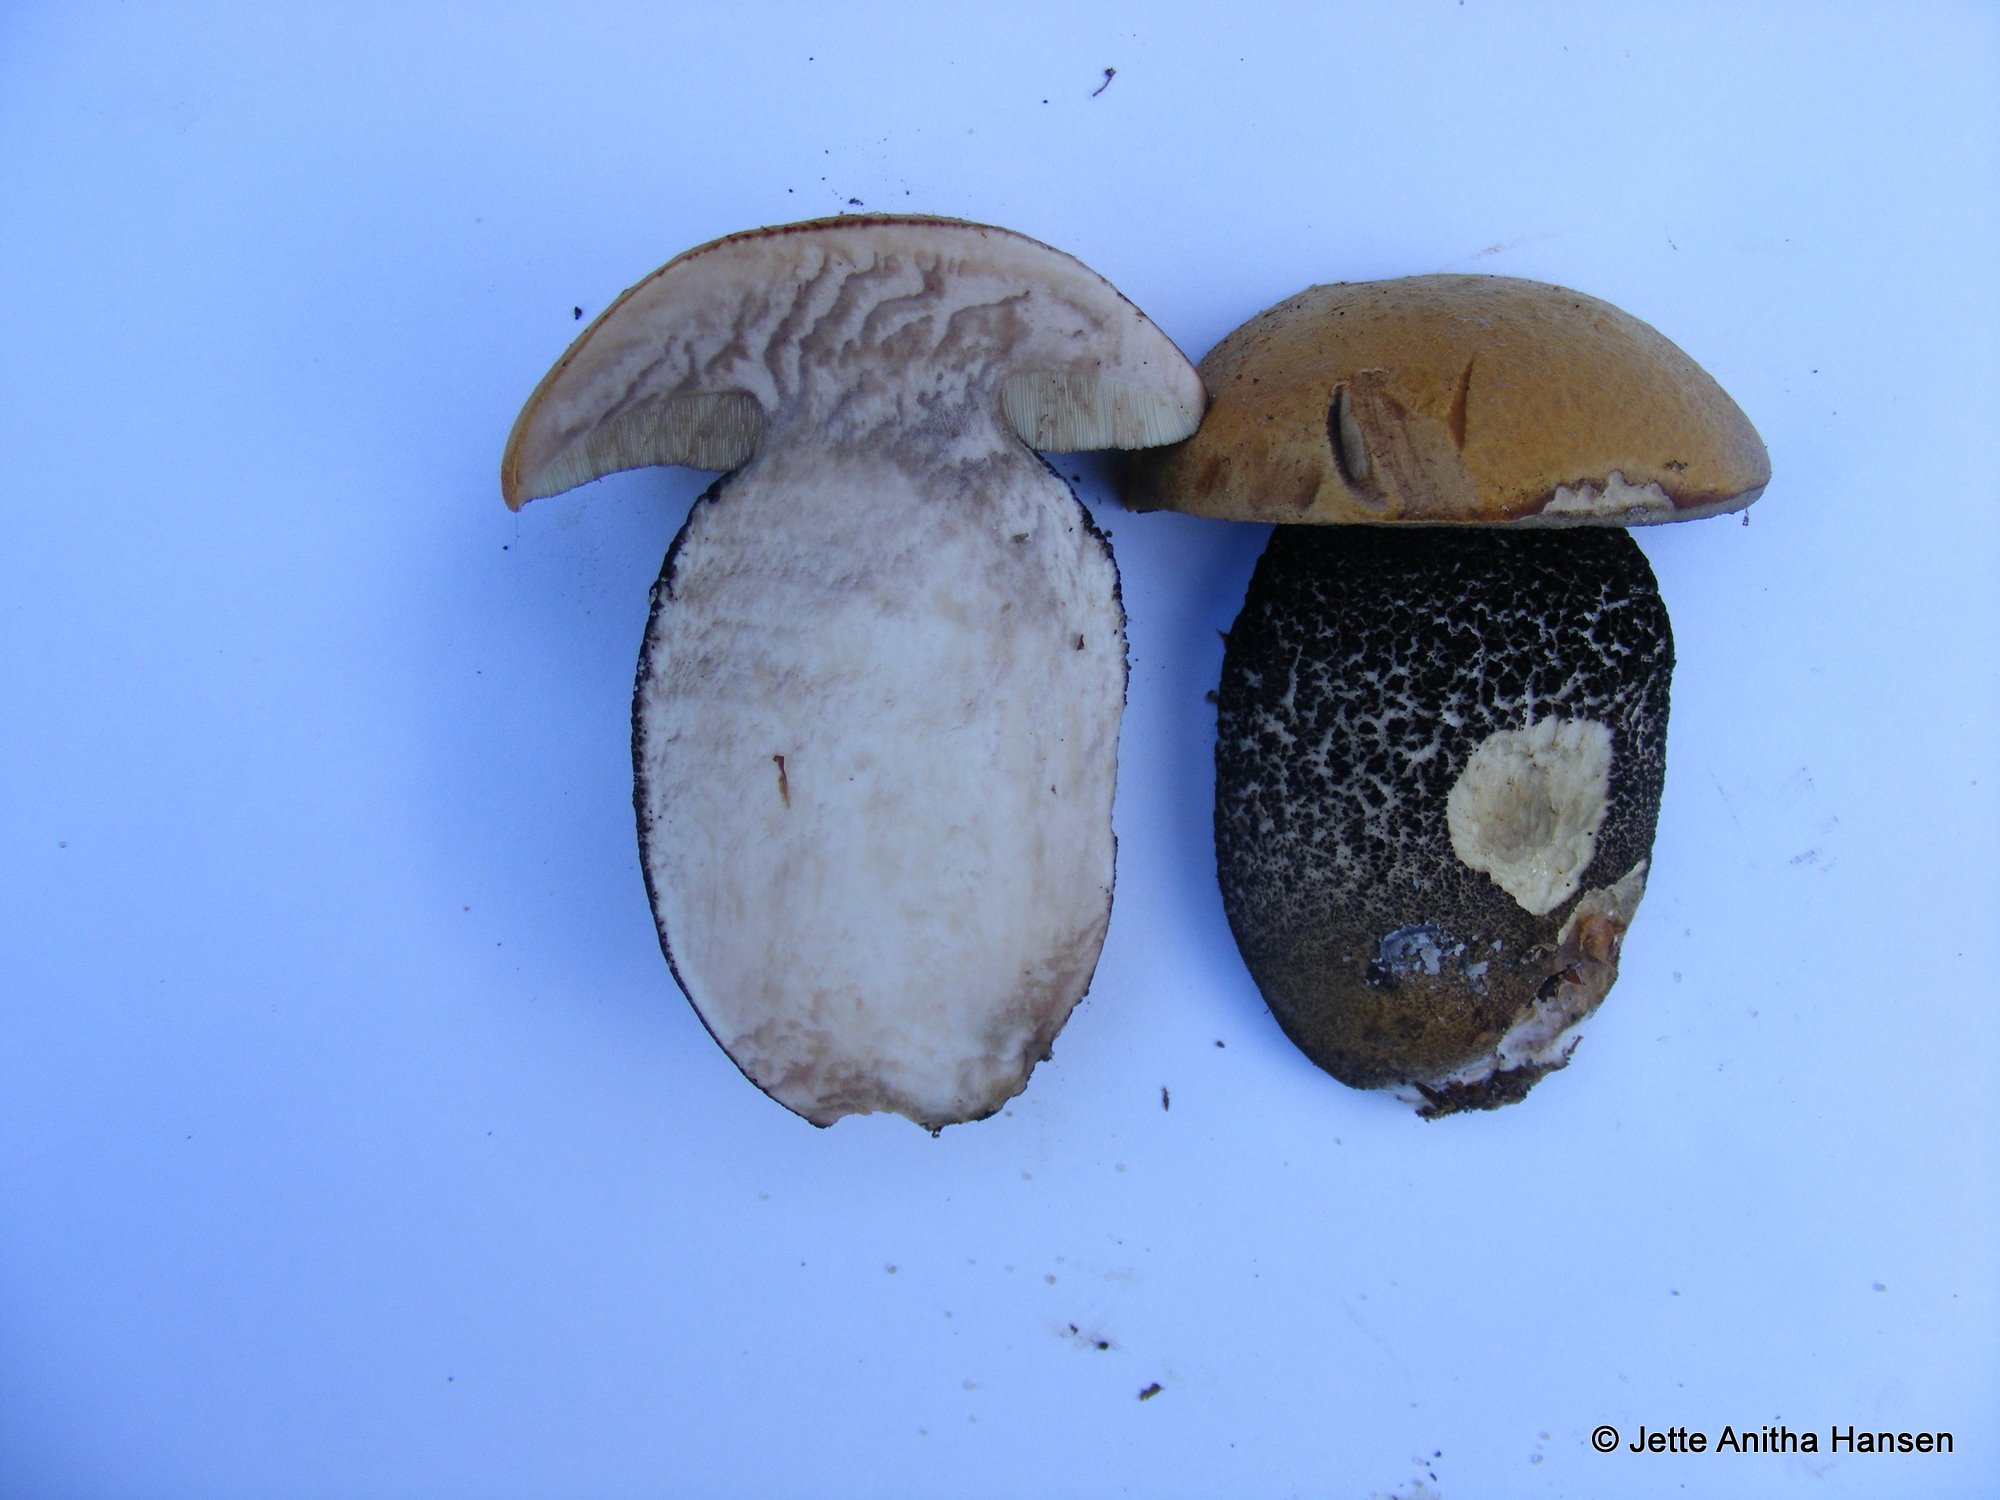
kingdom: Fungi
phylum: Basidiomycota
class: Agaricomycetes
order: Boletales
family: Boletaceae
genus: Leccinum
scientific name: Leccinum versipelle
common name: orange skælrørhat
